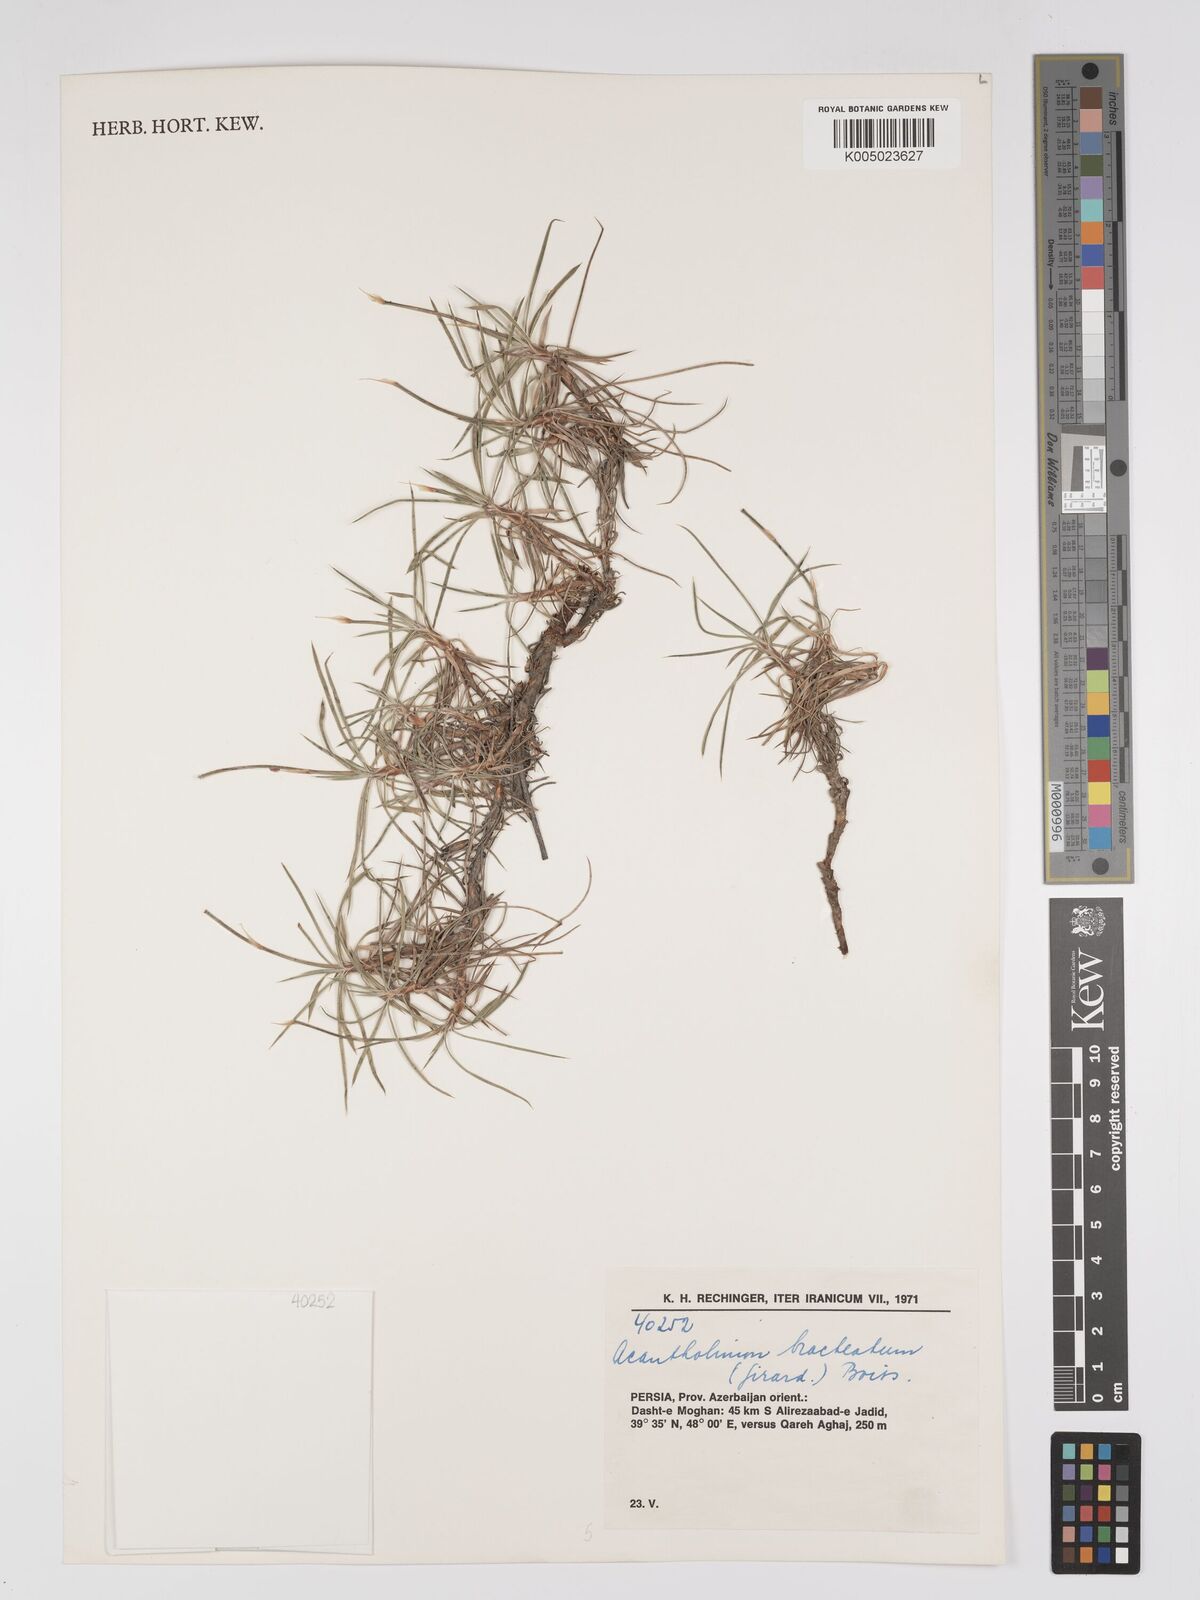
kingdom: Plantae
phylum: Tracheophyta
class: Magnoliopsida
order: Caryophyllales
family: Plumbaginaceae
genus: Acantholimon
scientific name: Acantholimon bracteatum
